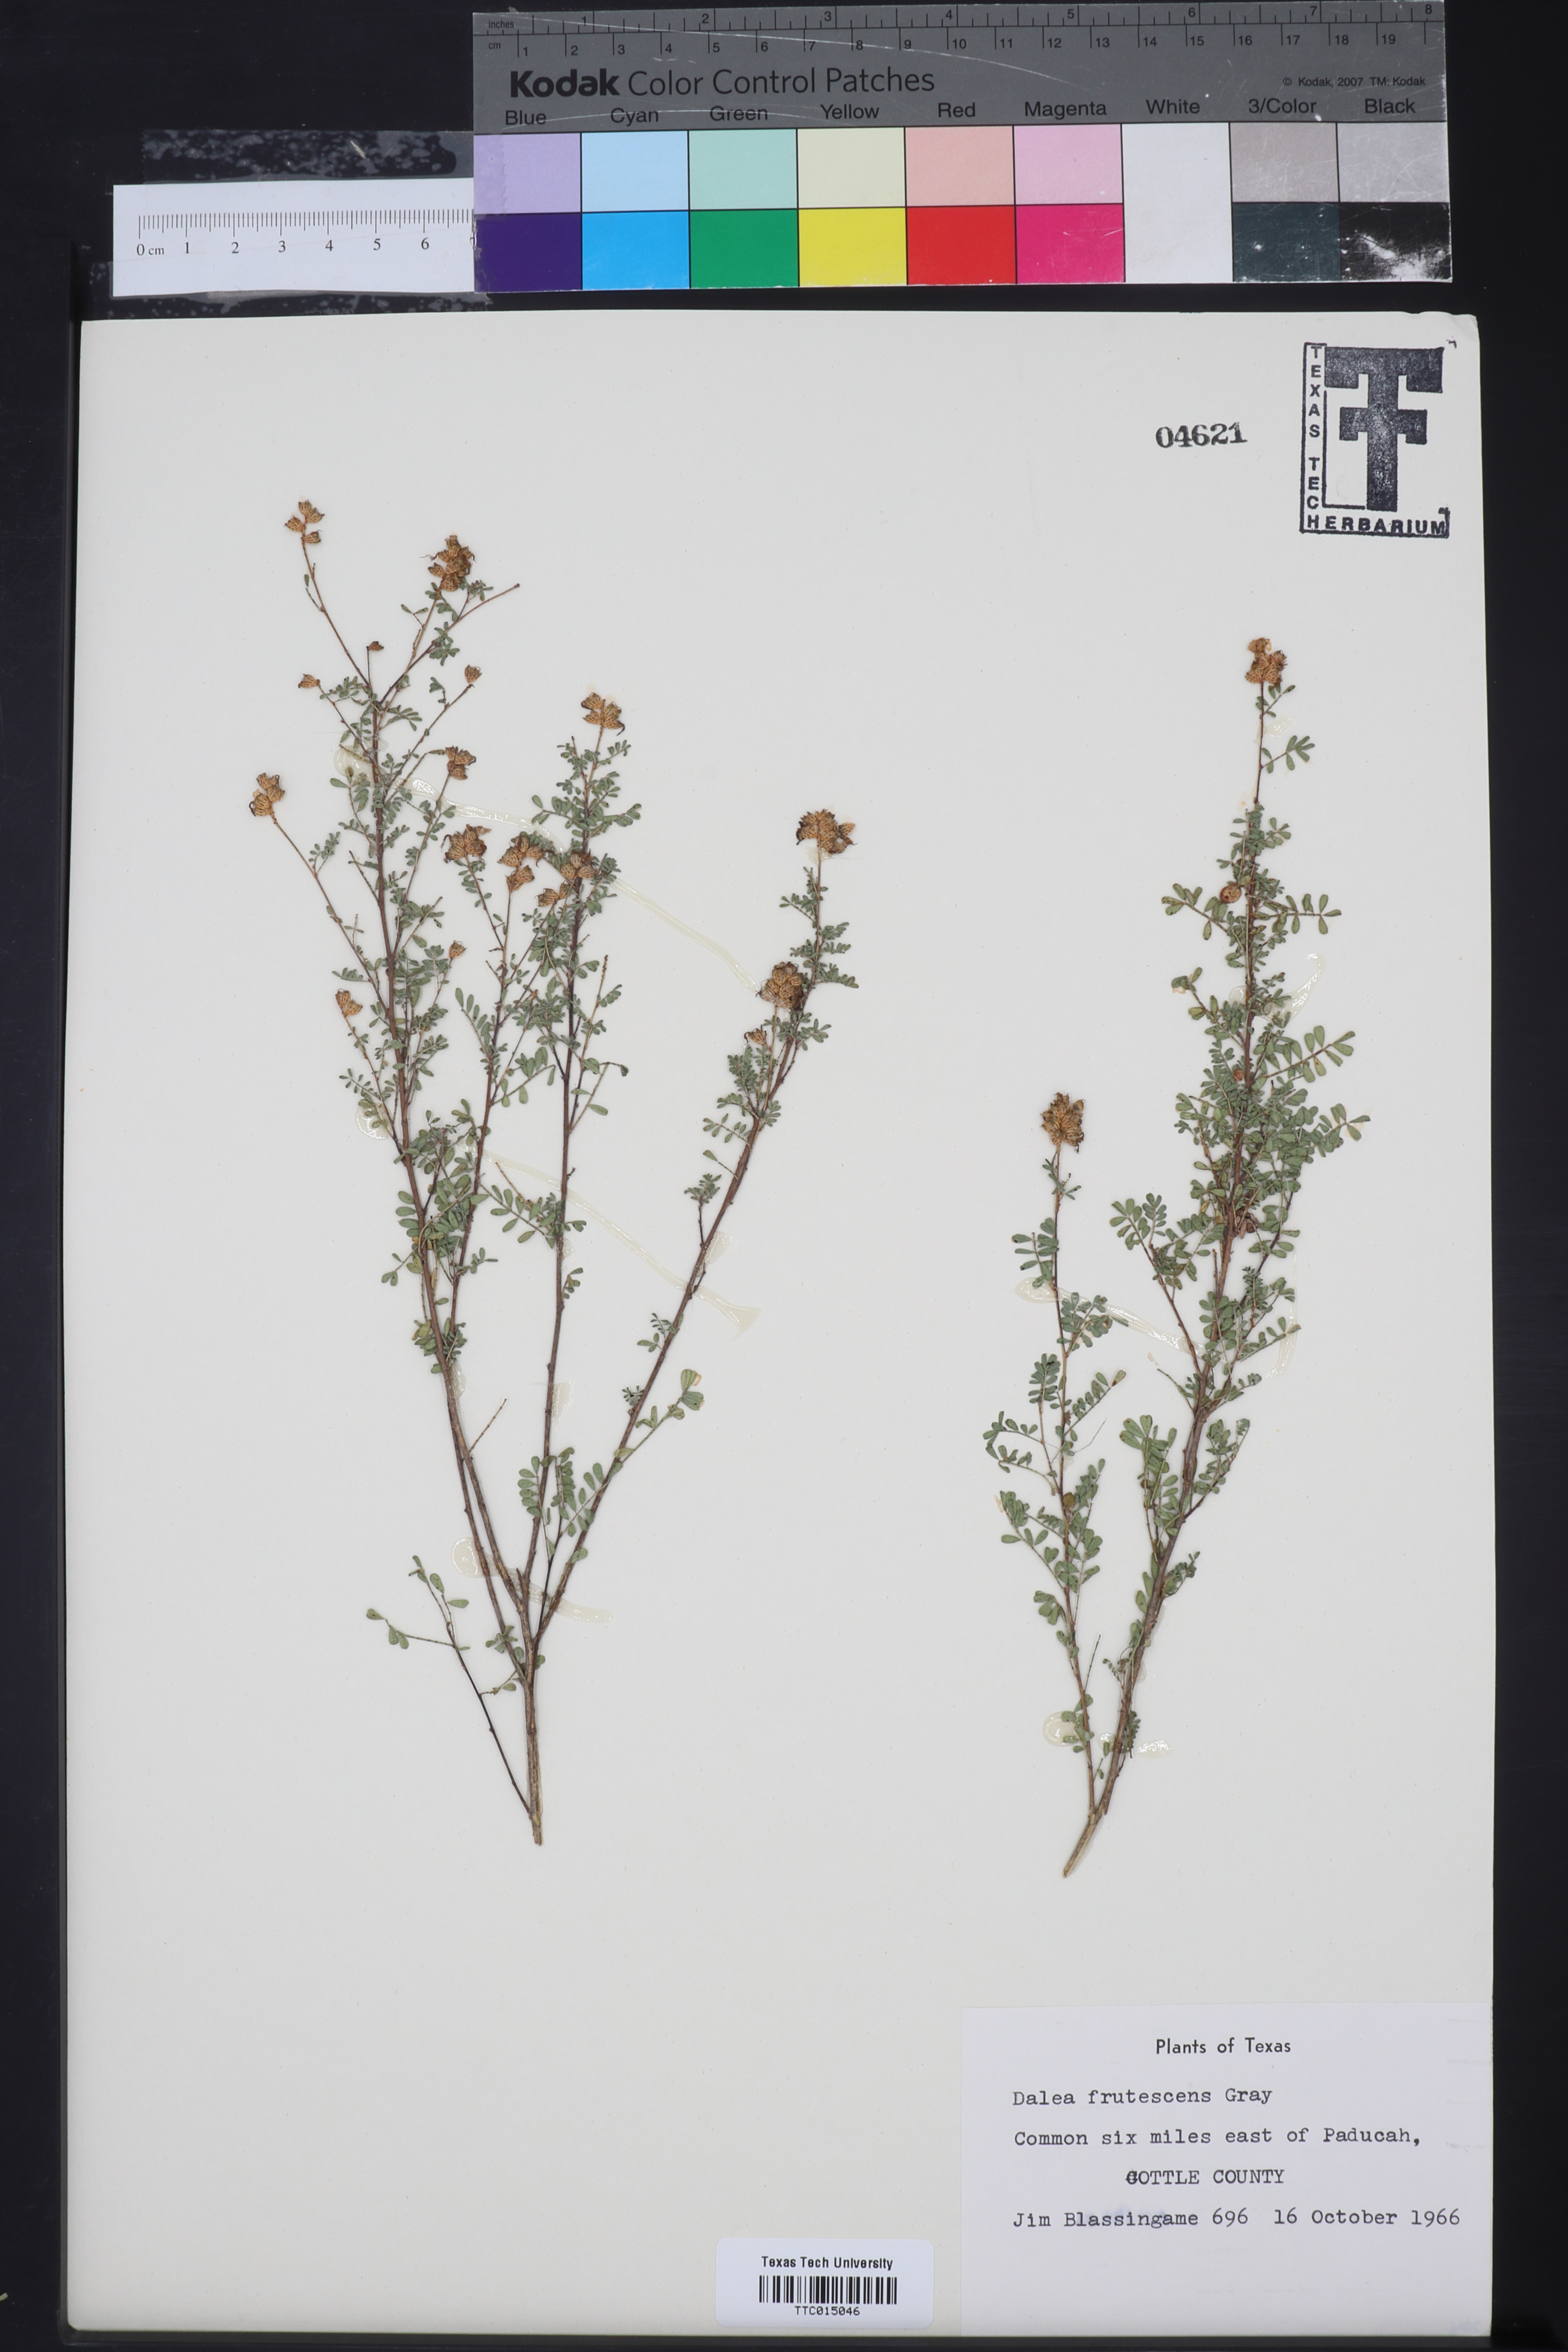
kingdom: Plantae
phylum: Tracheophyta
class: Magnoliopsida
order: Fabales
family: Fabaceae
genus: Dalea
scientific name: Dalea frutescens
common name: Black dalea
